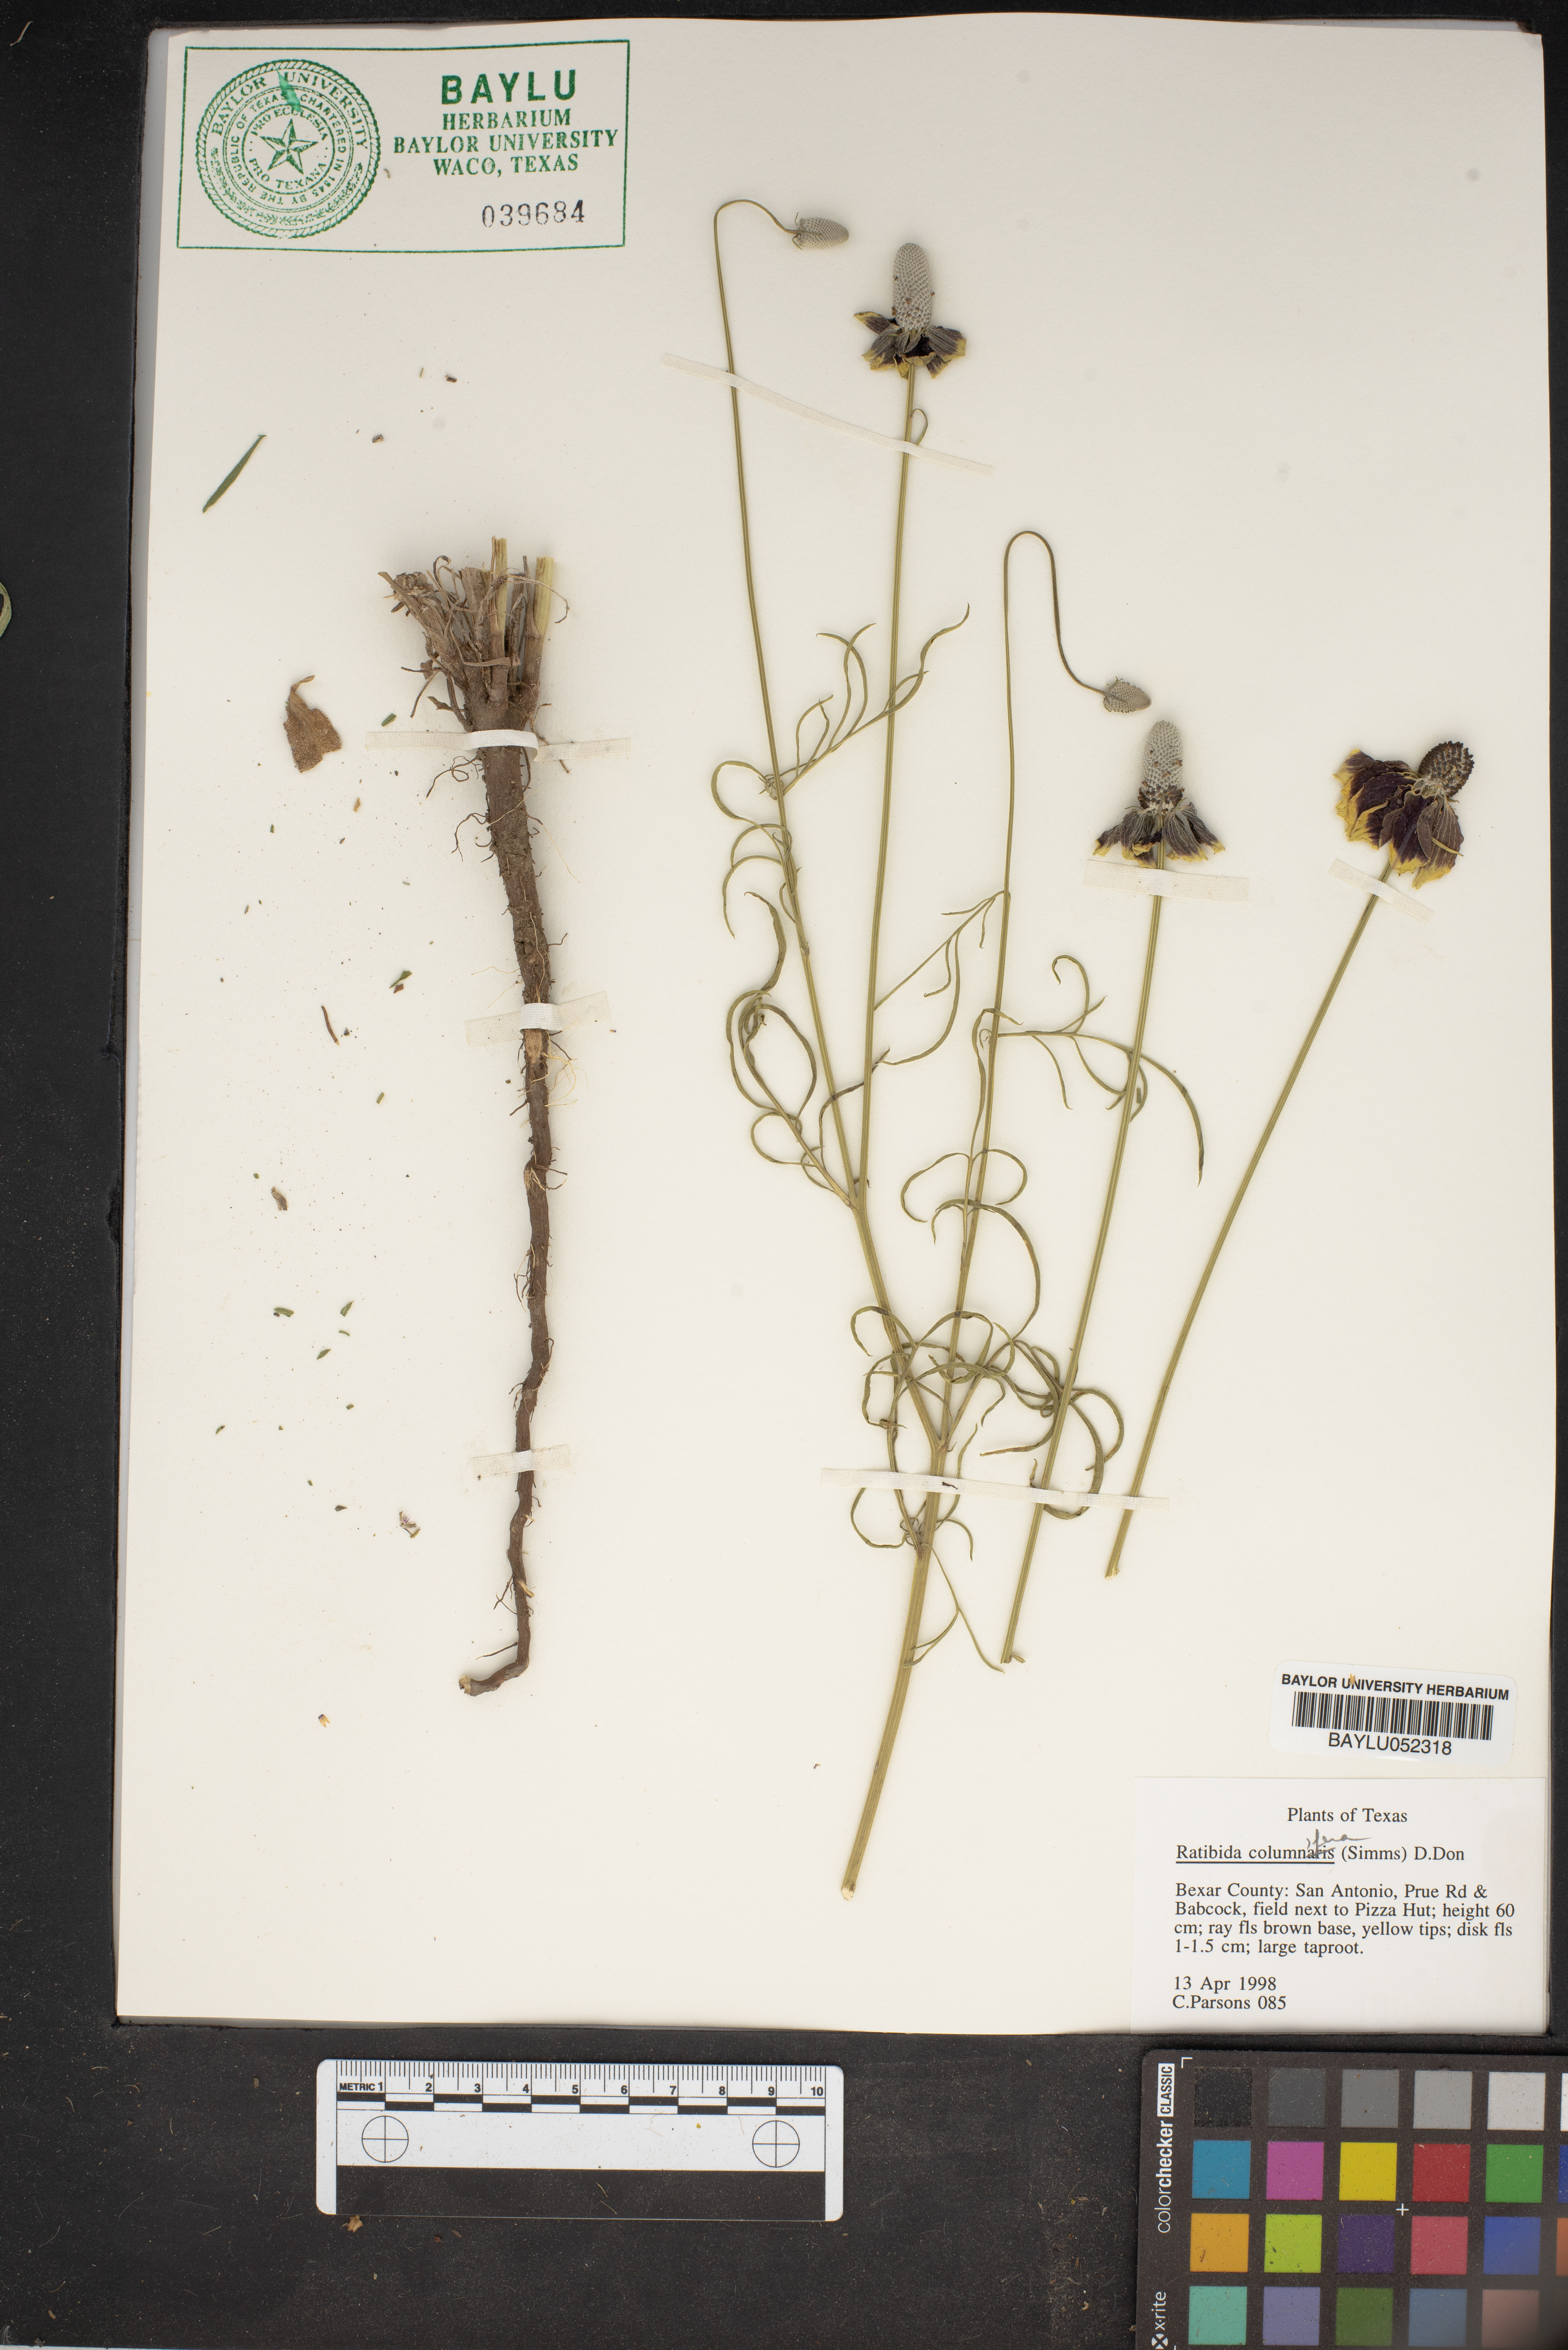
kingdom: Plantae
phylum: Tracheophyta
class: Magnoliopsida
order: Asterales
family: Asteraceae
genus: Ratibida
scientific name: Ratibida columnifera
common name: Prairie coneflower
